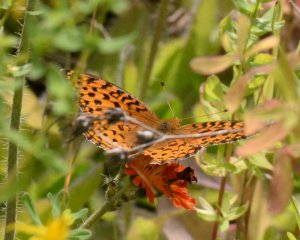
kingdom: Animalia
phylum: Arthropoda
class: Insecta
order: Lepidoptera
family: Nymphalidae
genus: Speyeria
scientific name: Speyeria aphrodite
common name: Aphrodite Fritillary
